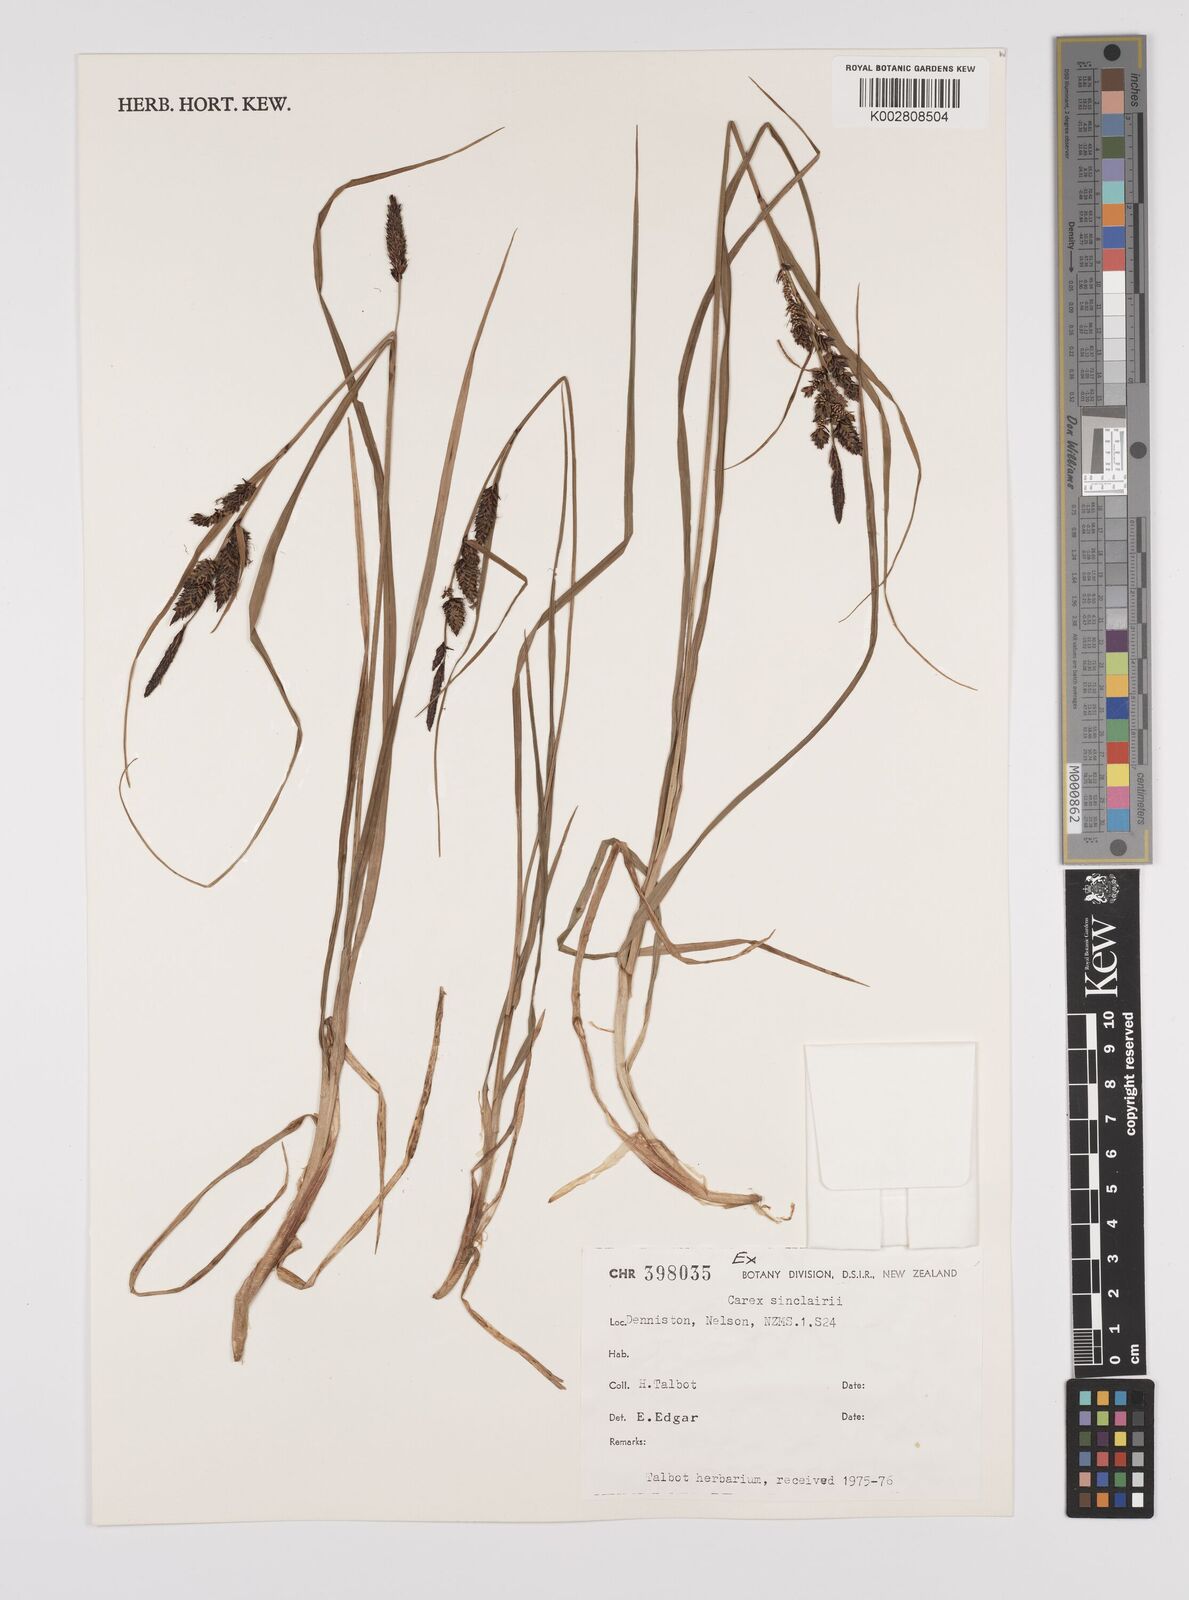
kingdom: Plantae
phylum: Tracheophyta
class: Liliopsida
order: Poales
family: Cyperaceae
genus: Carex
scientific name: Carex sinclairii
